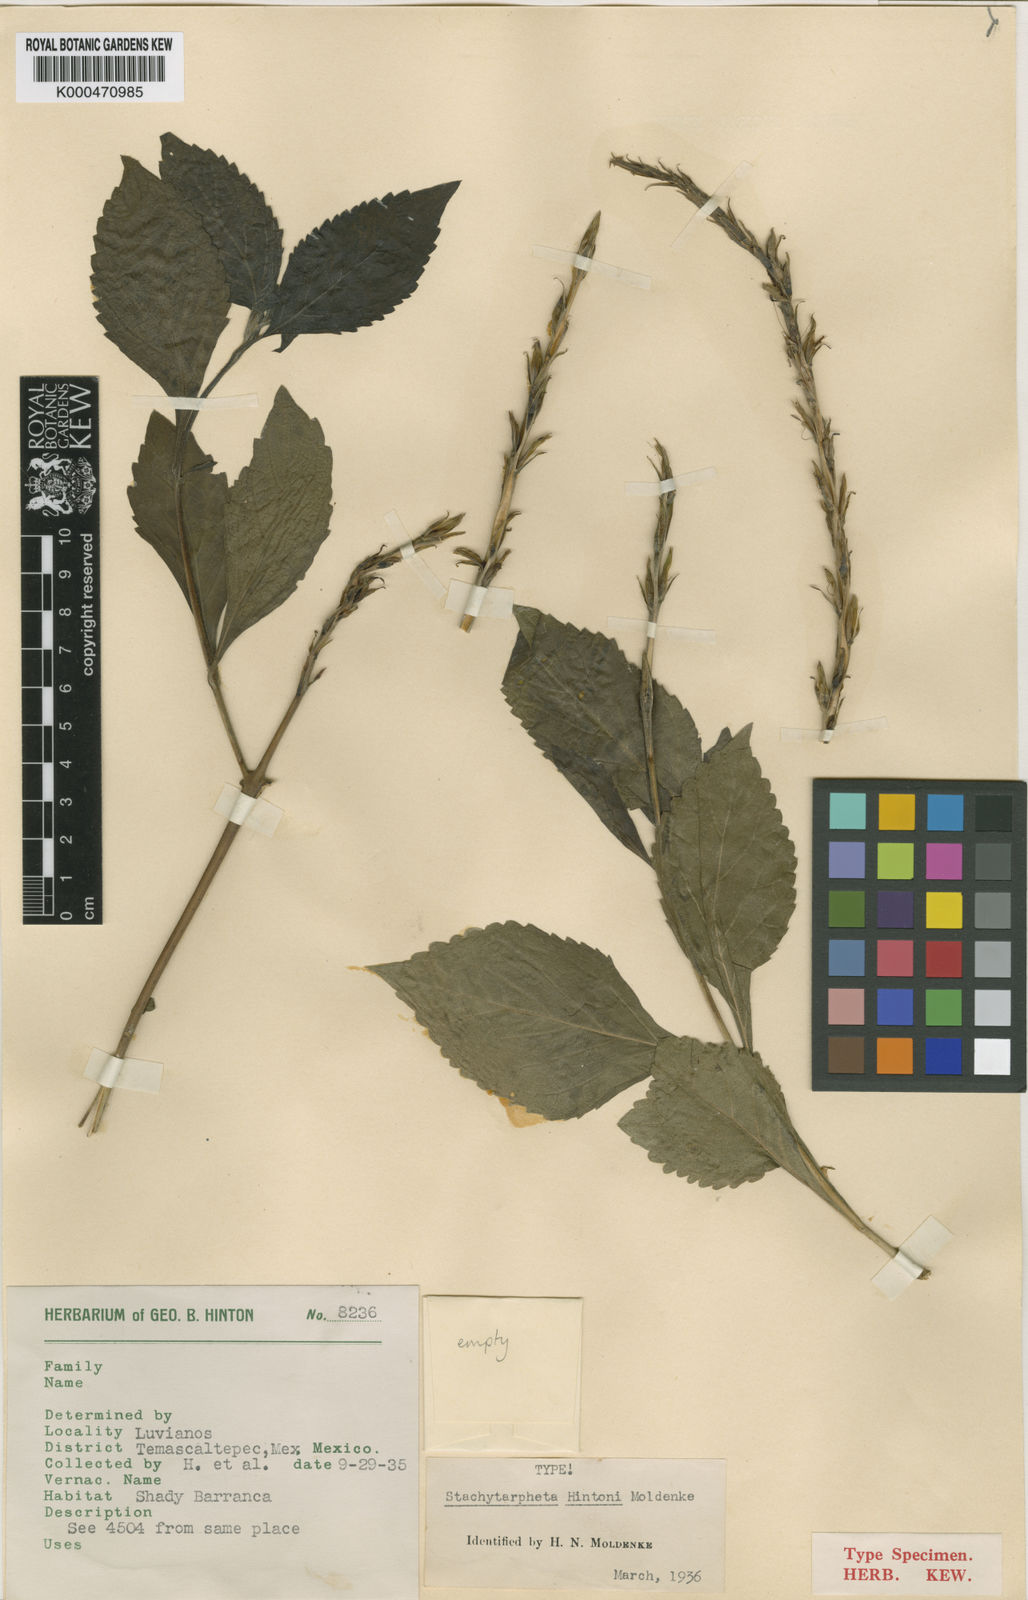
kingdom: Plantae
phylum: Tracheophyta
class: Magnoliopsida
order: Lamiales
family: Verbenaceae
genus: Stachytarpheta
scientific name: Stachytarpheta hintonii
